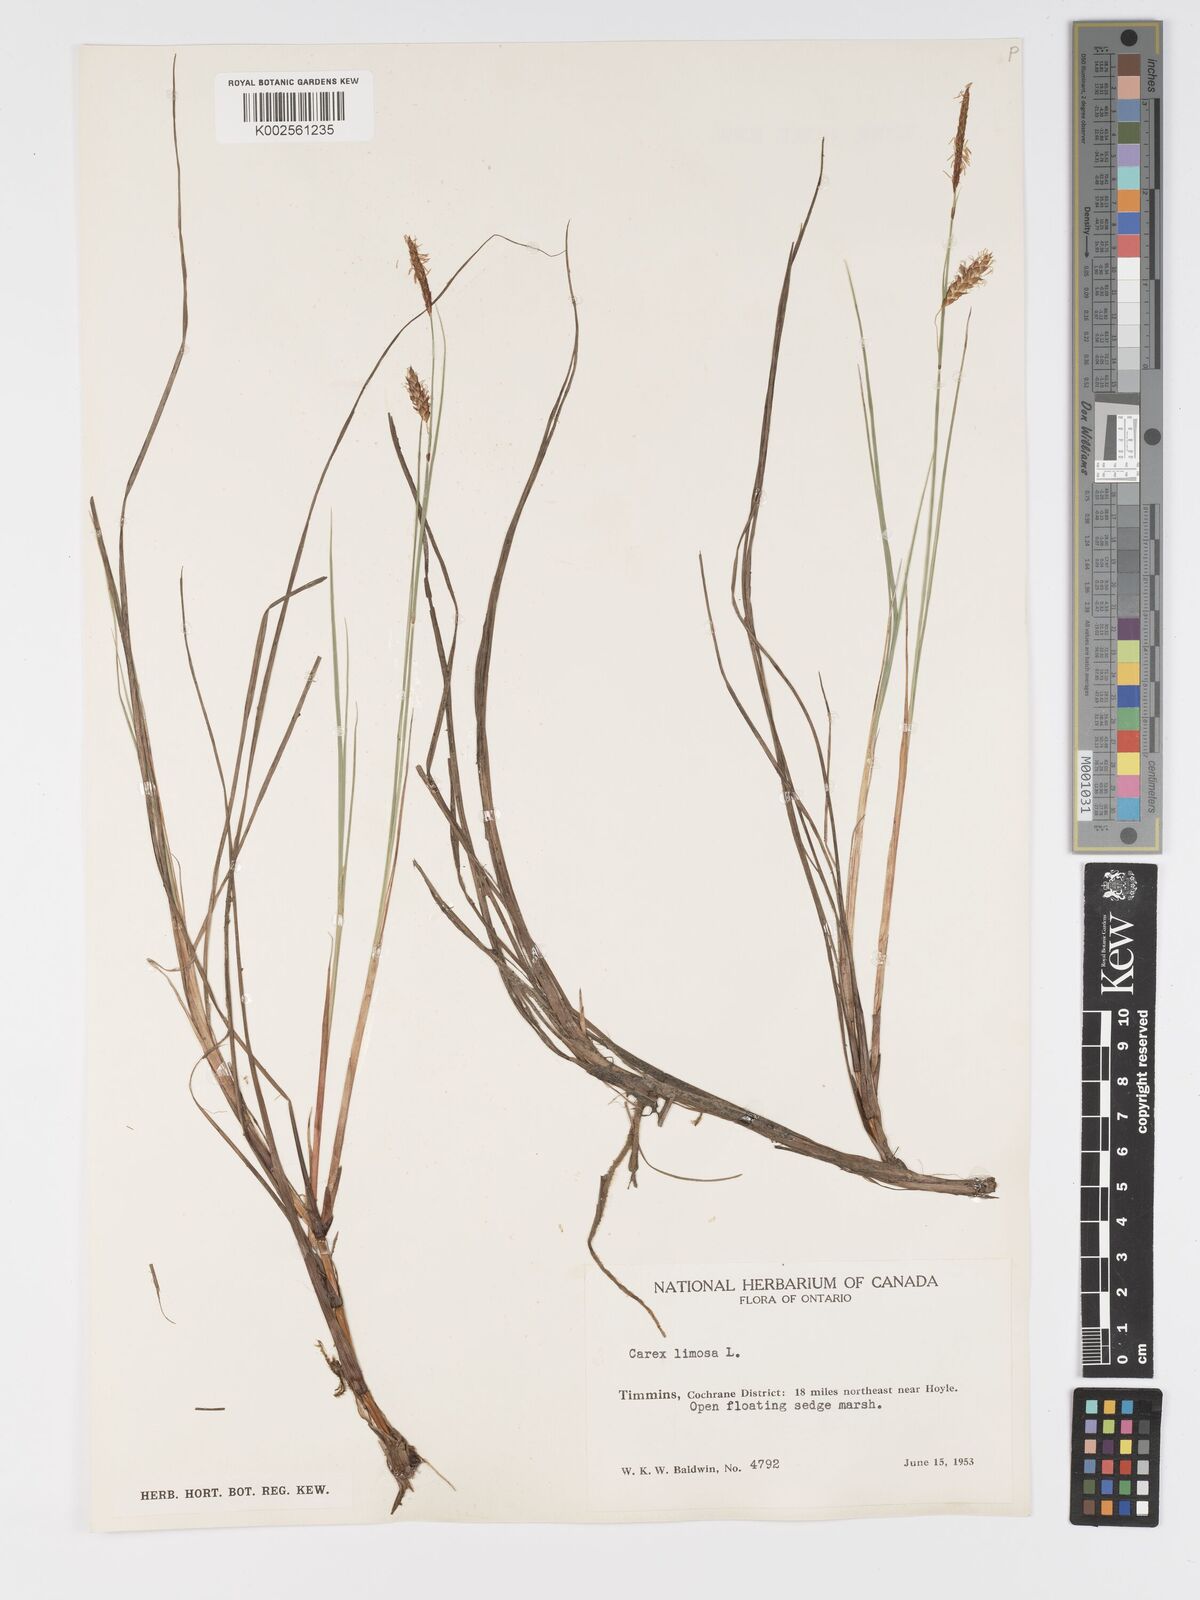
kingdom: Plantae
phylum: Tracheophyta
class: Liliopsida
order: Poales
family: Cyperaceae
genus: Carex
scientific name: Carex limosa
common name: Bog sedge
